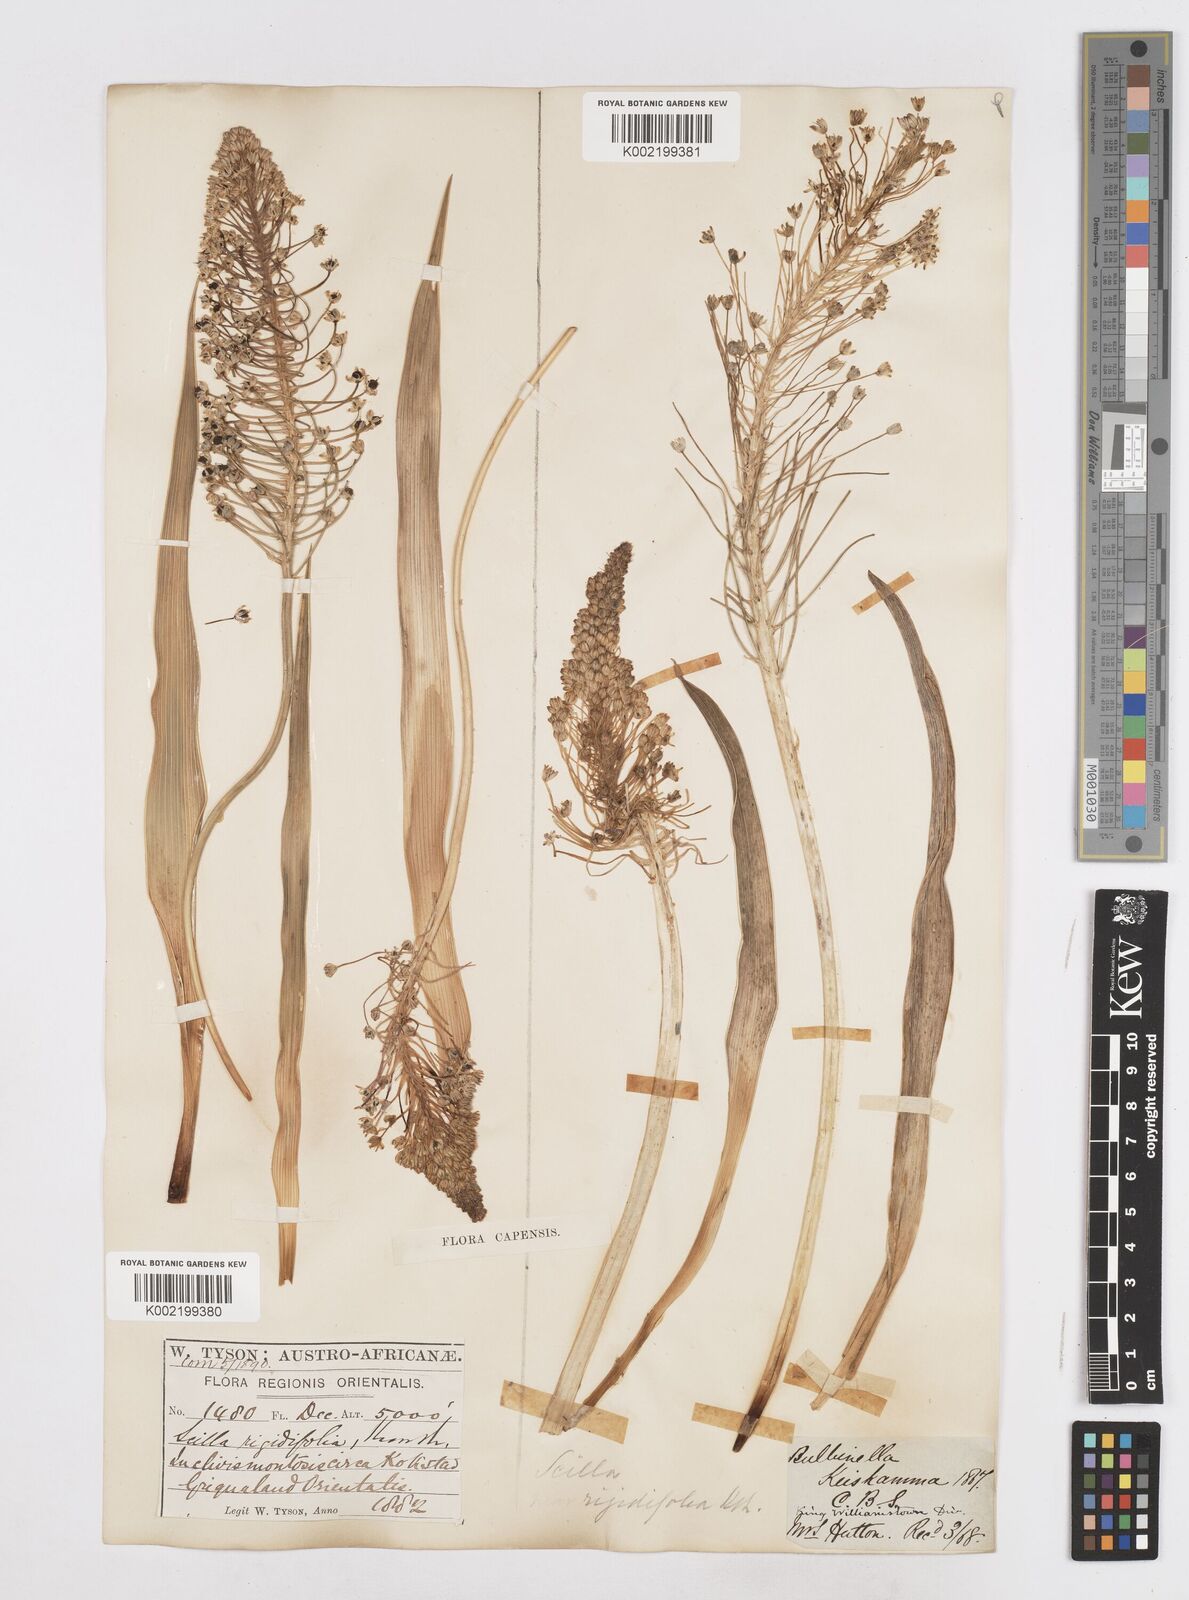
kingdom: Plantae
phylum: Tracheophyta
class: Liliopsida
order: Asparagales
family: Asparagaceae
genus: Schizocarphus
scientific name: Schizocarphus nervosus
